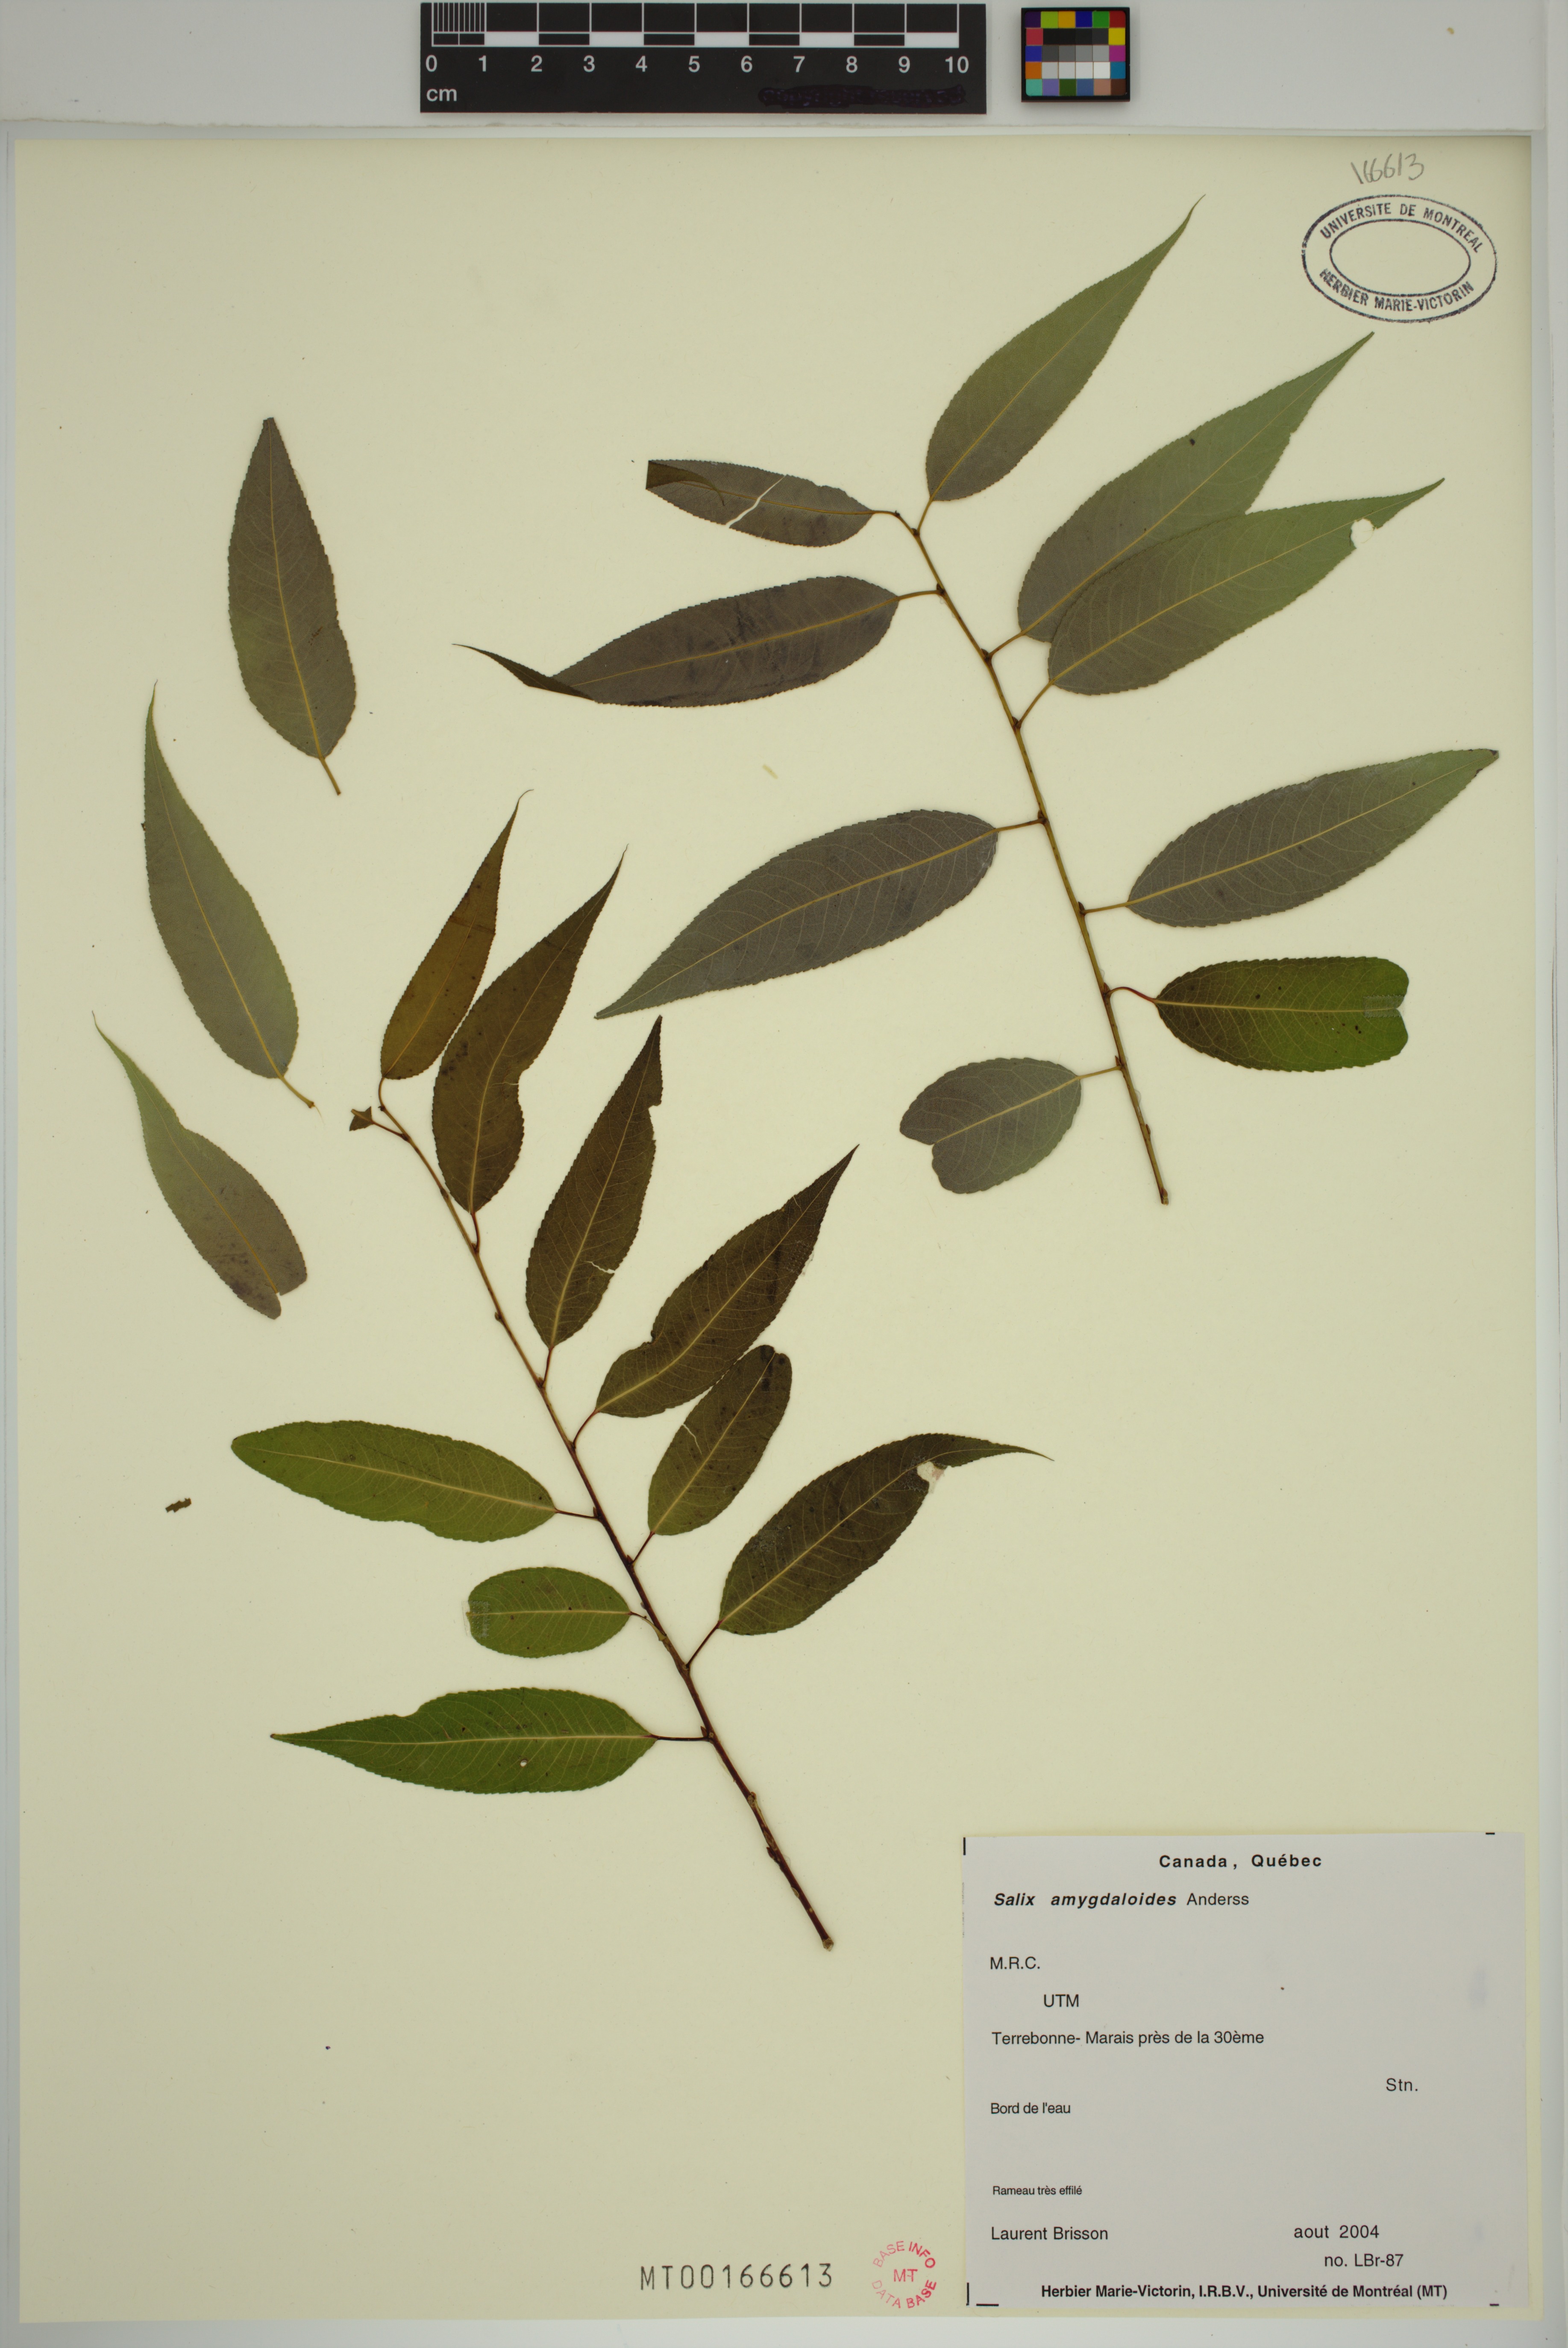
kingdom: Plantae
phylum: Tracheophyta
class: Magnoliopsida
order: Boraginales
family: Boraginaceae
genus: Lappula
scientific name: Lappula squarrosa
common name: European stickseed
